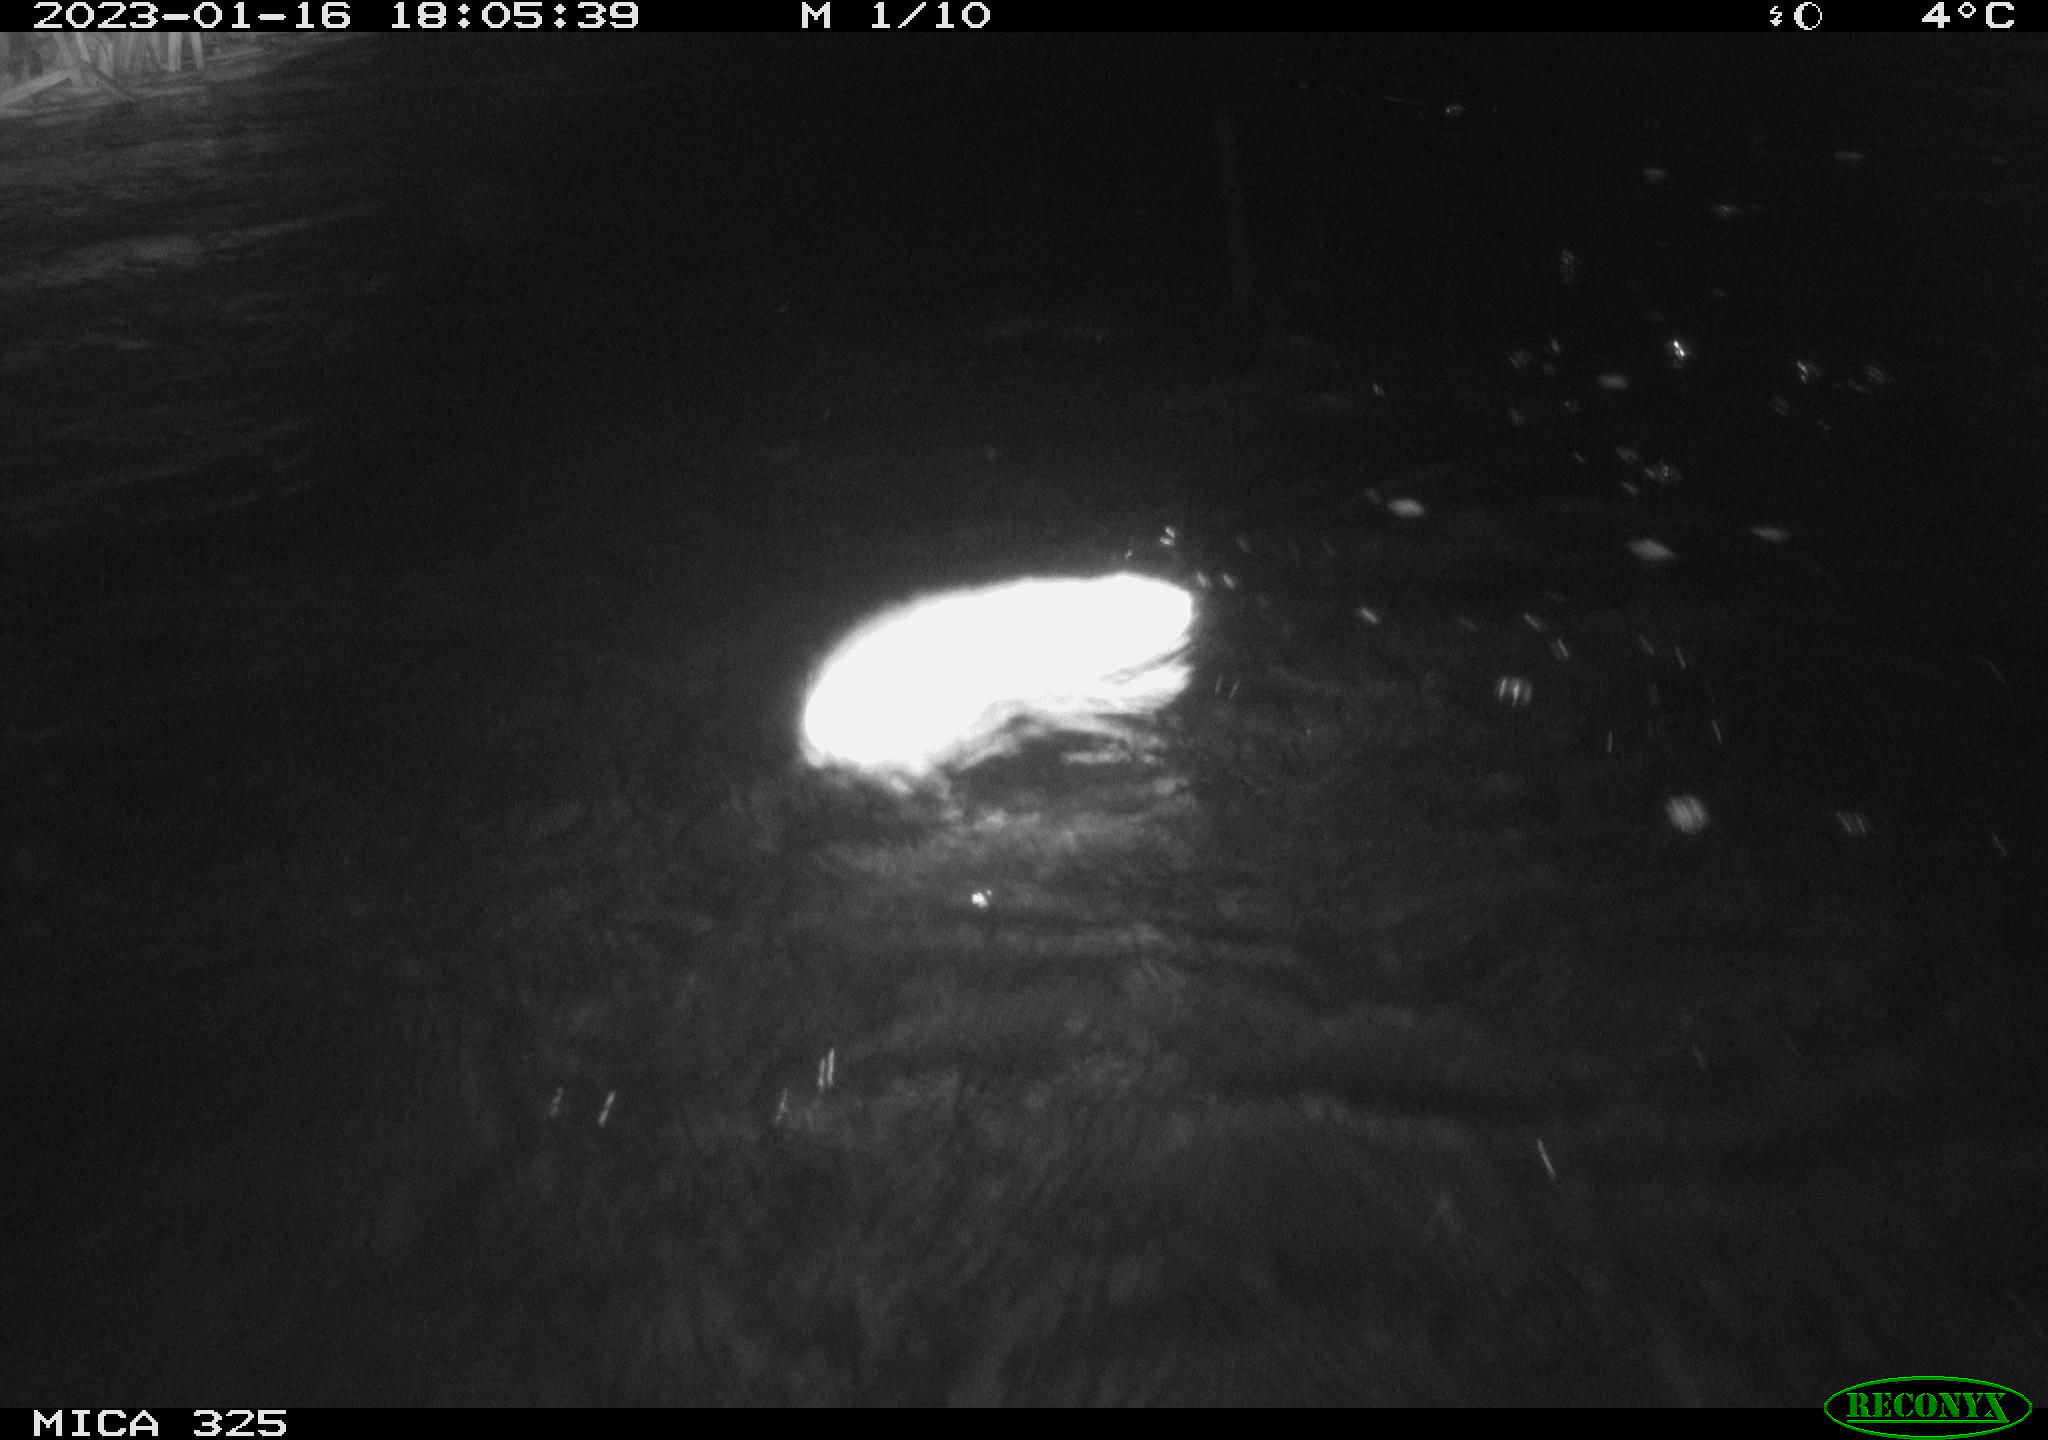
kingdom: Animalia
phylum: Chordata
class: Mammalia
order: Rodentia
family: Cricetidae
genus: Ondatra
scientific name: Ondatra zibethicus
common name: Muskrat
